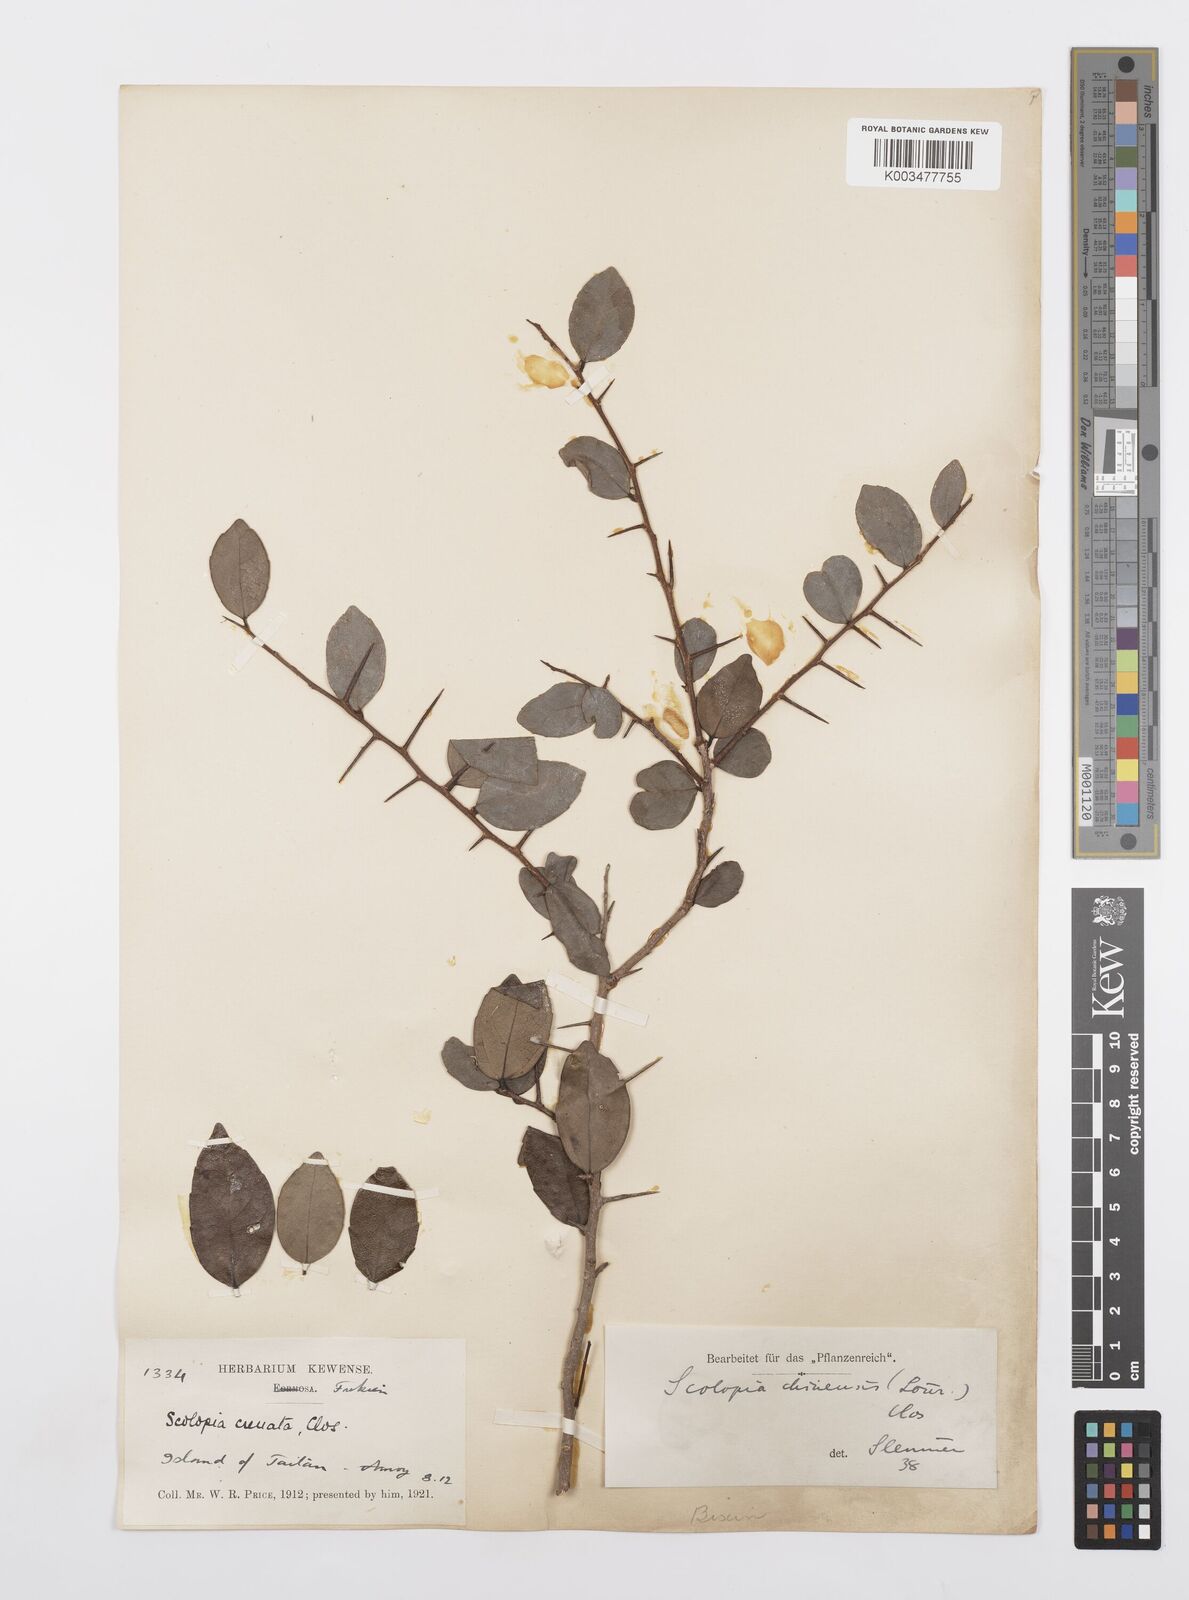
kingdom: Plantae
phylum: Tracheophyta
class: Magnoliopsida
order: Malpighiales
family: Salicaceae
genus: Scolopia
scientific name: Scolopia chinensis
